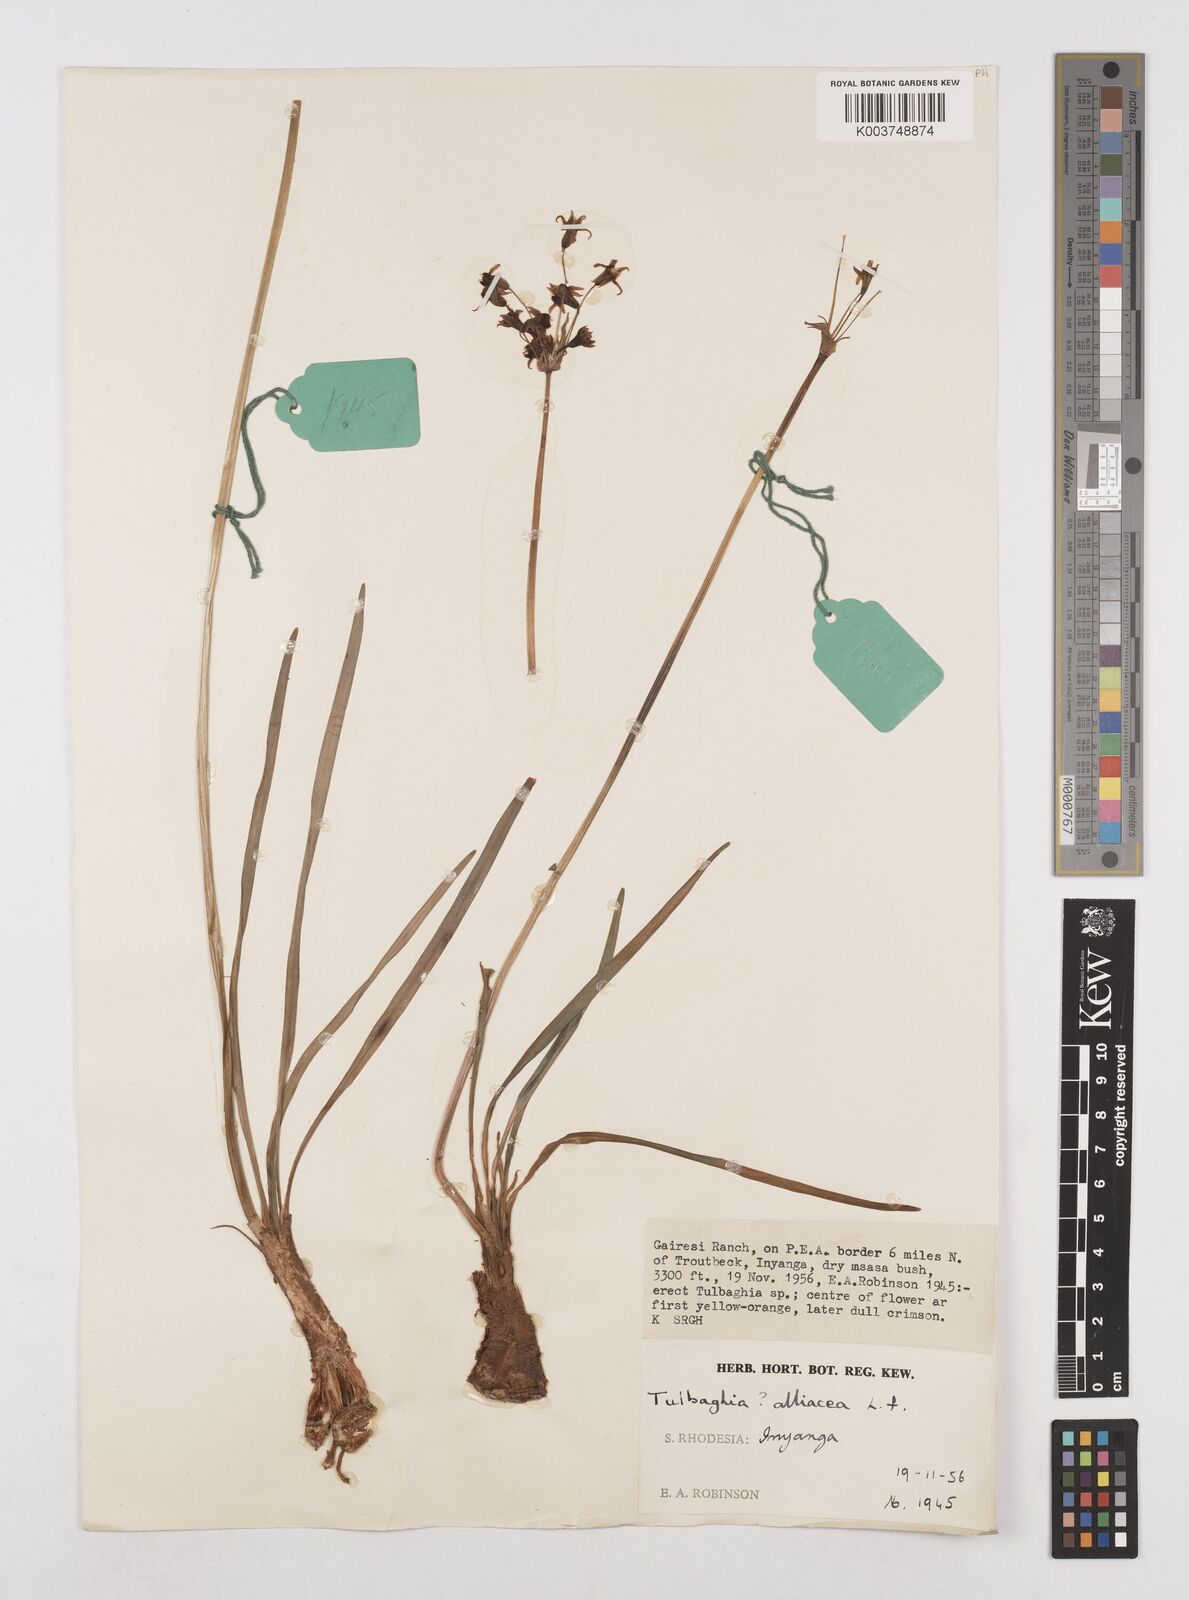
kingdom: Plantae
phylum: Tracheophyta
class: Liliopsida
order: Asparagales
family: Amaryllidaceae
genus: Tulbaghia
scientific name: Tulbaghia alliacea
